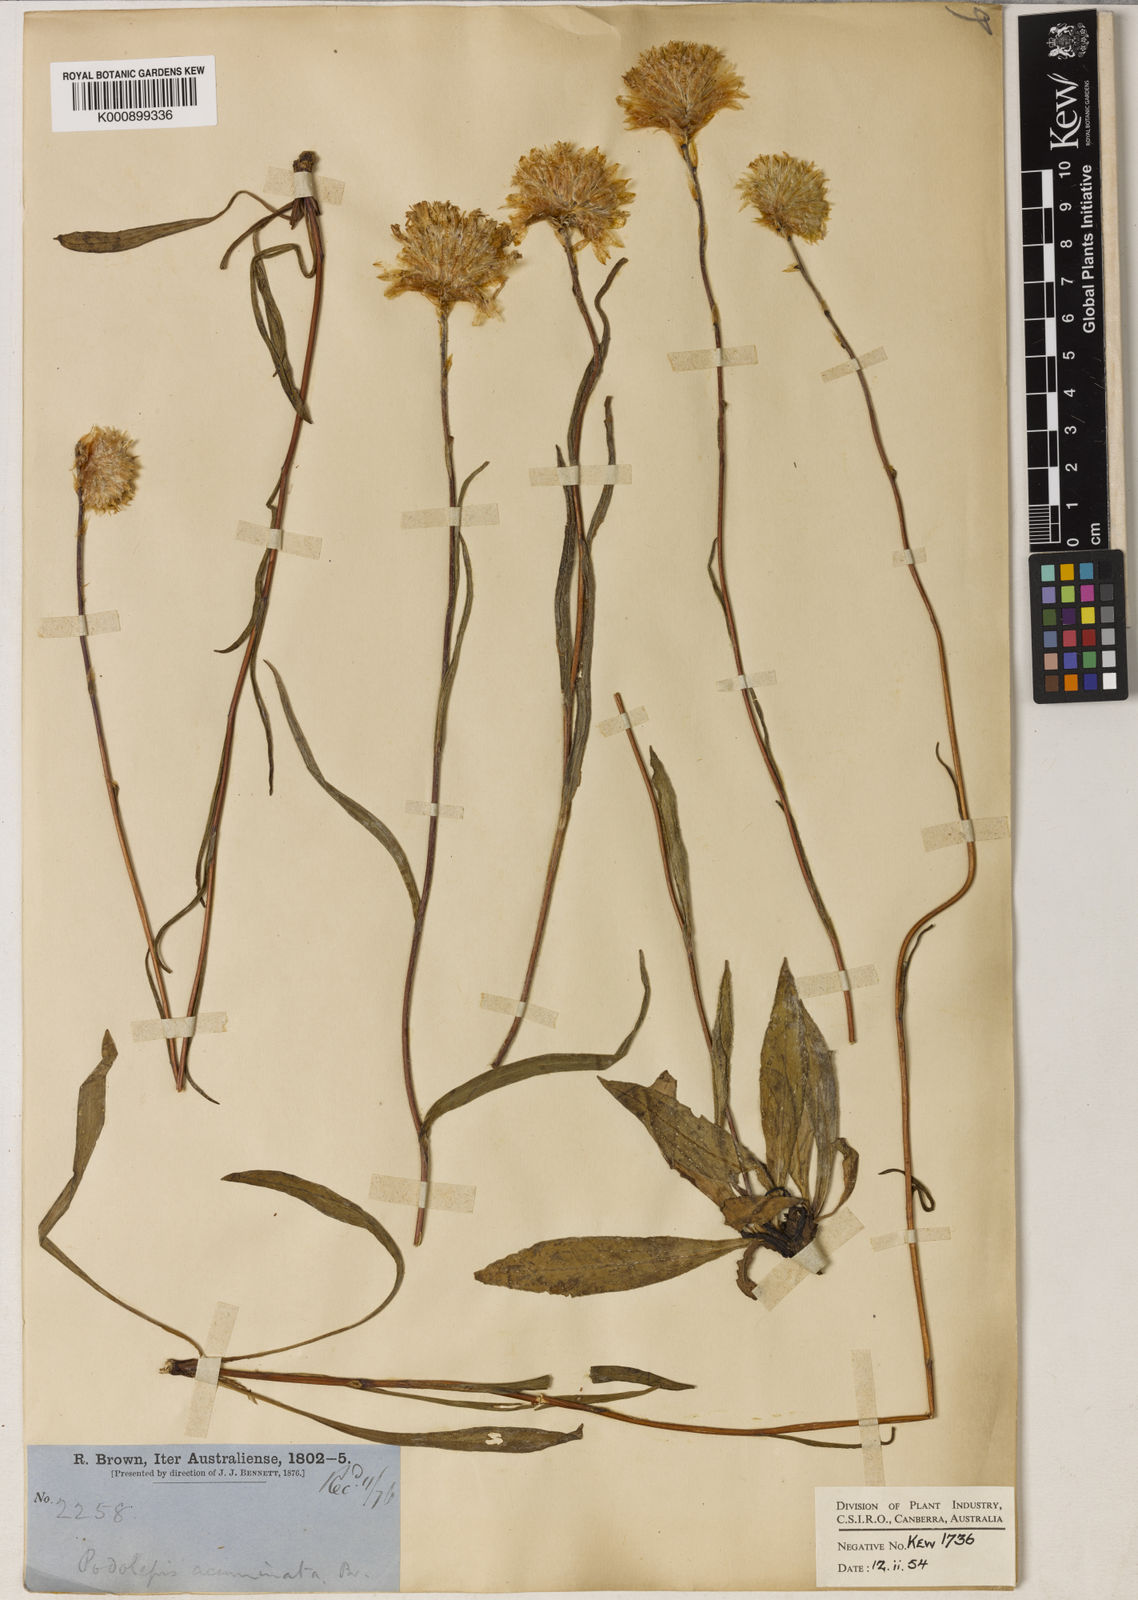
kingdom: Plantae
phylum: Tracheophyta
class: Magnoliopsida
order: Asterales
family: Asteraceae
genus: Podolepis
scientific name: Podolepis jaceoides
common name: Showy copper-wired daisy
